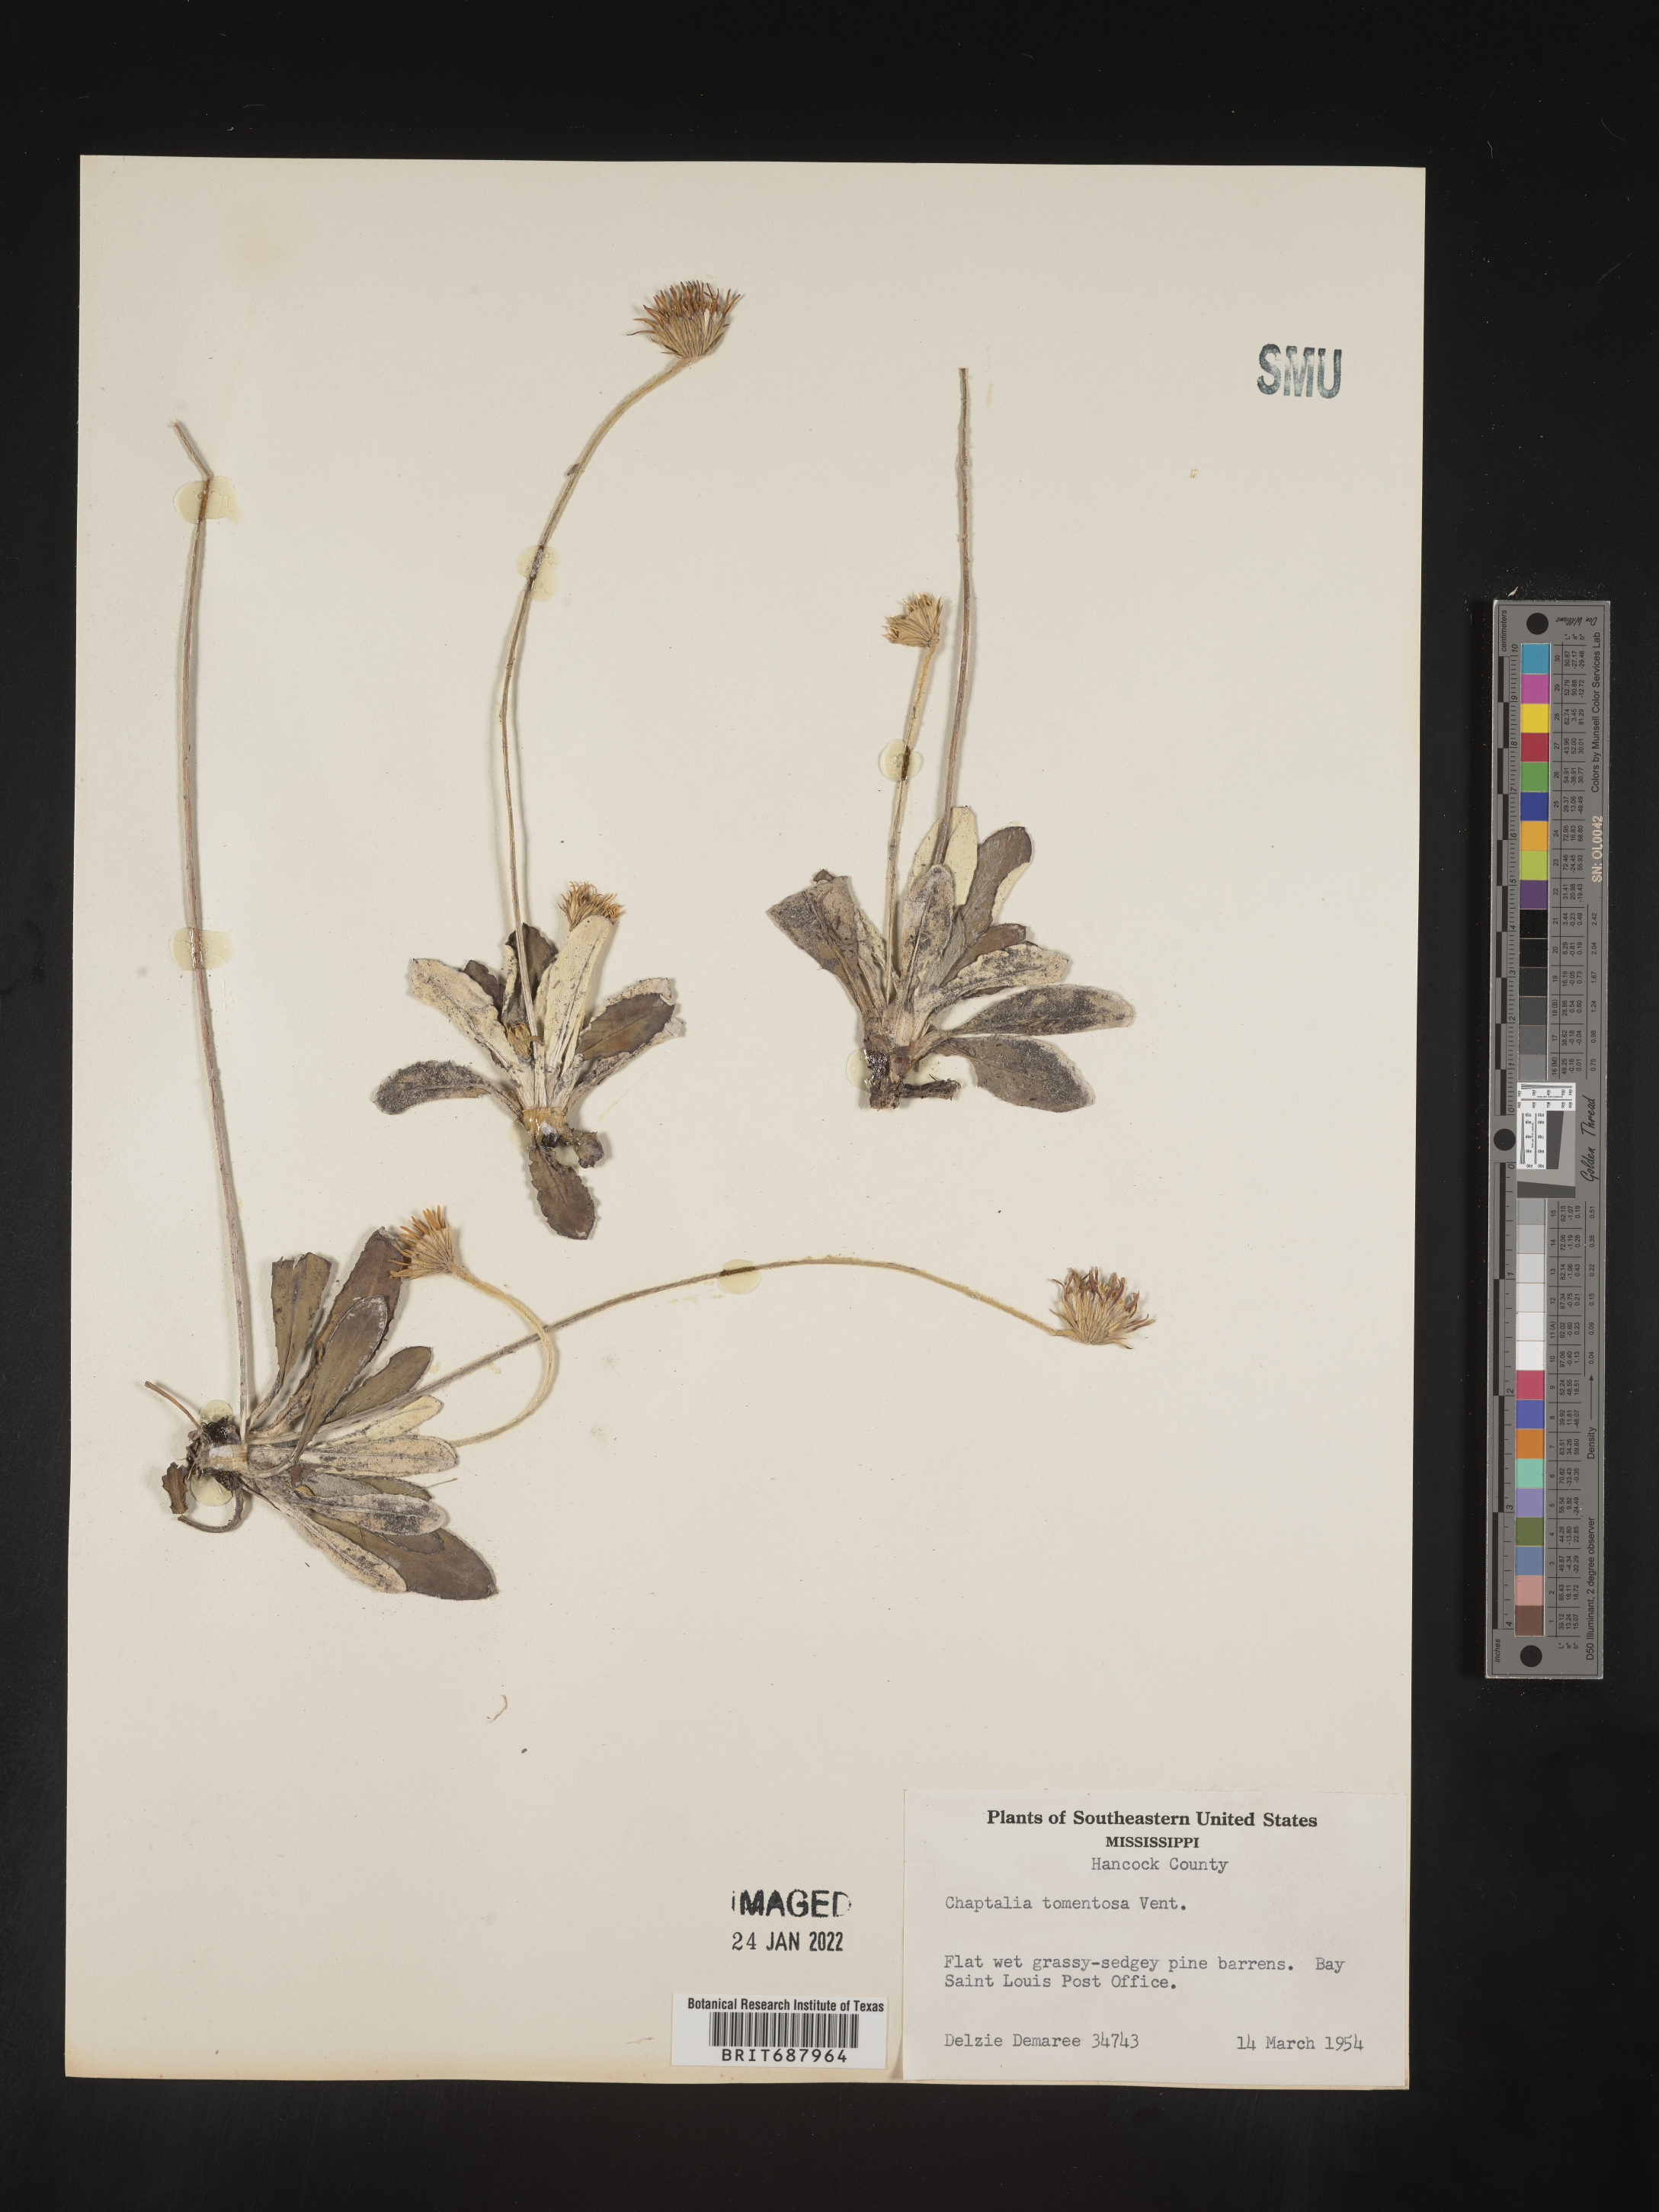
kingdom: Plantae
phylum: Tracheophyta
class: Magnoliopsida
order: Asterales
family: Asteraceae
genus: Chaptalia
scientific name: Chaptalia tomentosa
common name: Woolly sunbonnet
